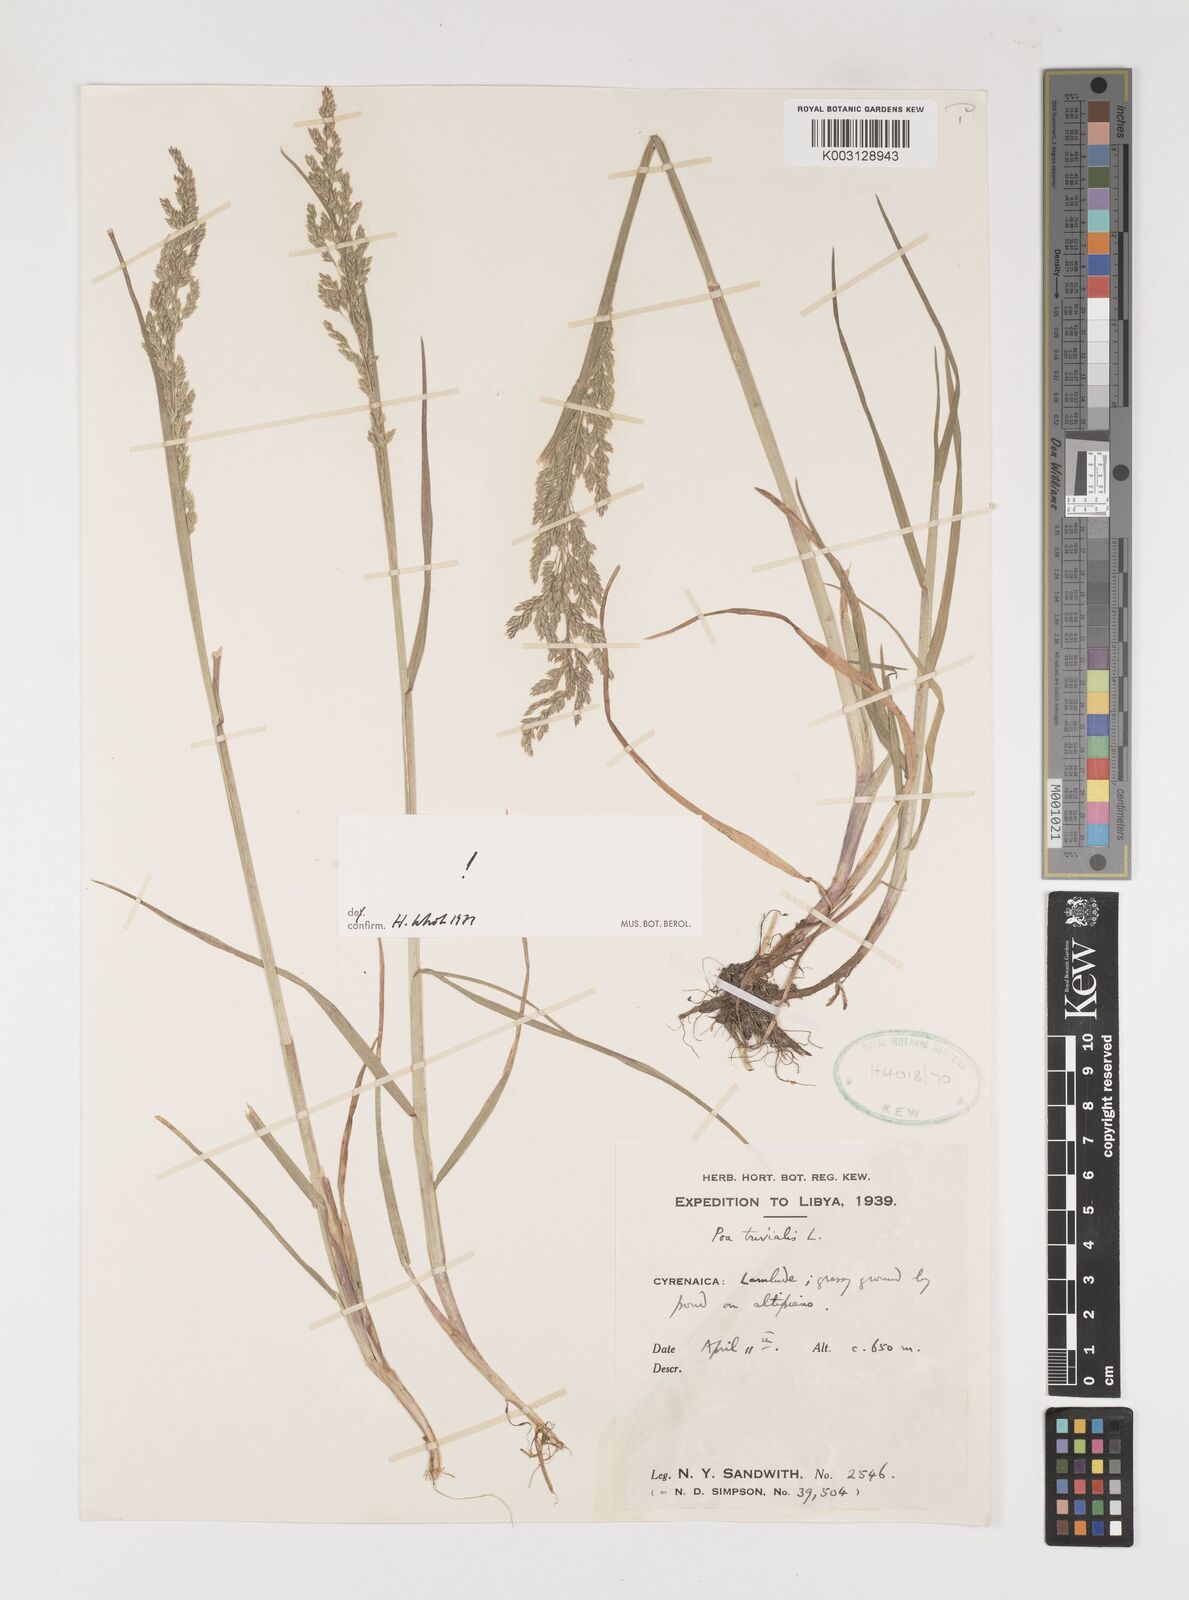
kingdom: Plantae
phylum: Tracheophyta
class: Liliopsida
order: Poales
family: Poaceae
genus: Poa
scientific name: Poa trivialis
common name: Rough bluegrass
